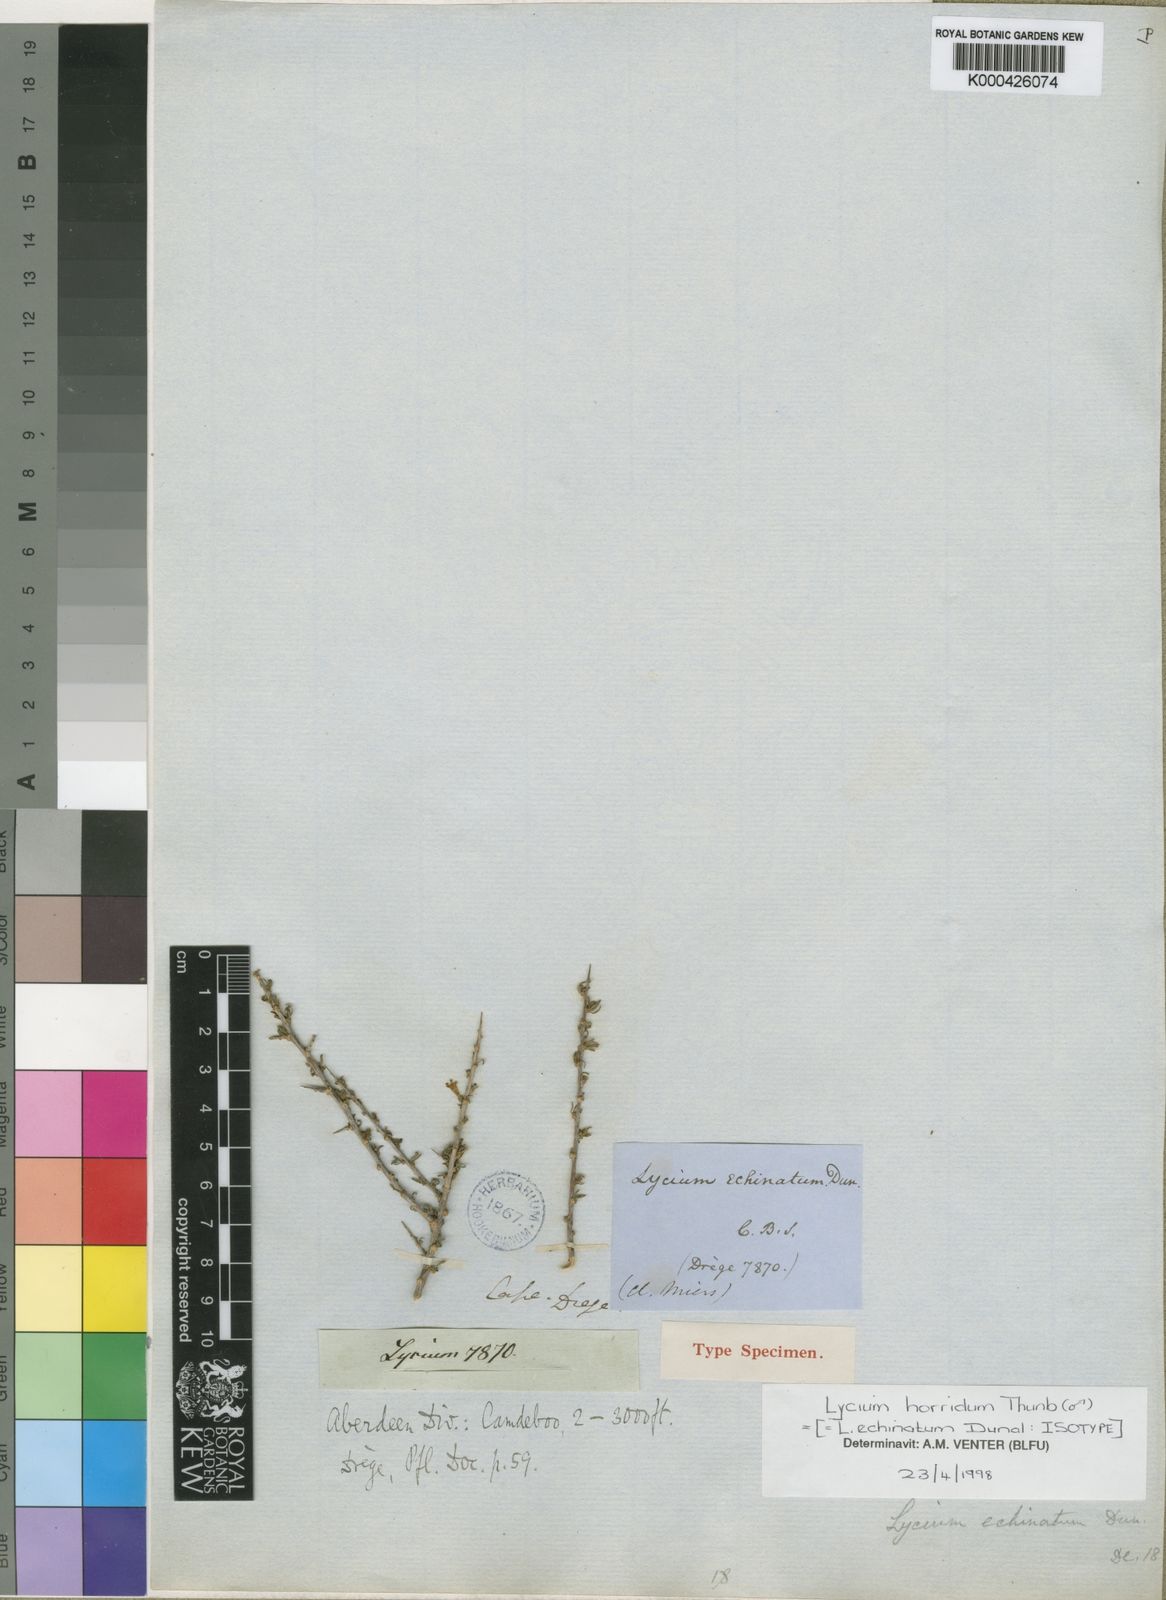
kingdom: Plantae
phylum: Tracheophyta
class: Magnoliopsida
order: Solanales
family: Solanaceae
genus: Lycium
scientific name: Lycium horridum
